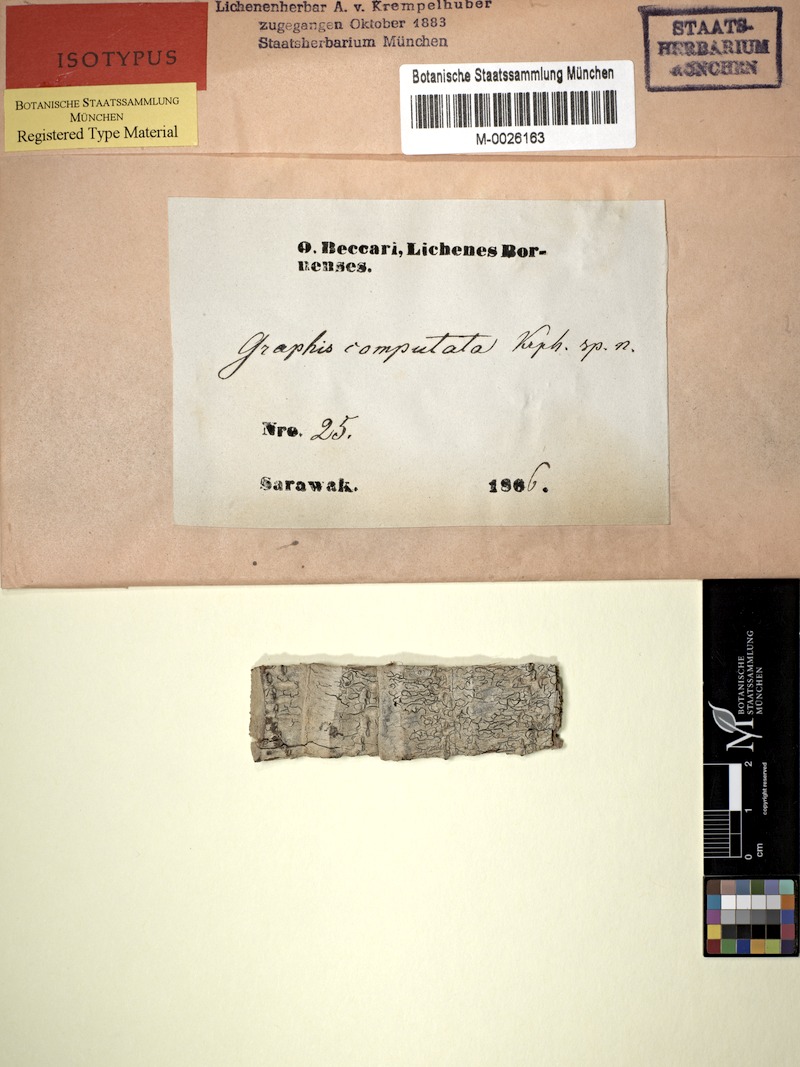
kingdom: Fungi
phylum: Ascomycota
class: Lecanoromycetes
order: Ostropales
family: Graphidaceae
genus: Platygramme
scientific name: Platygramme computata
